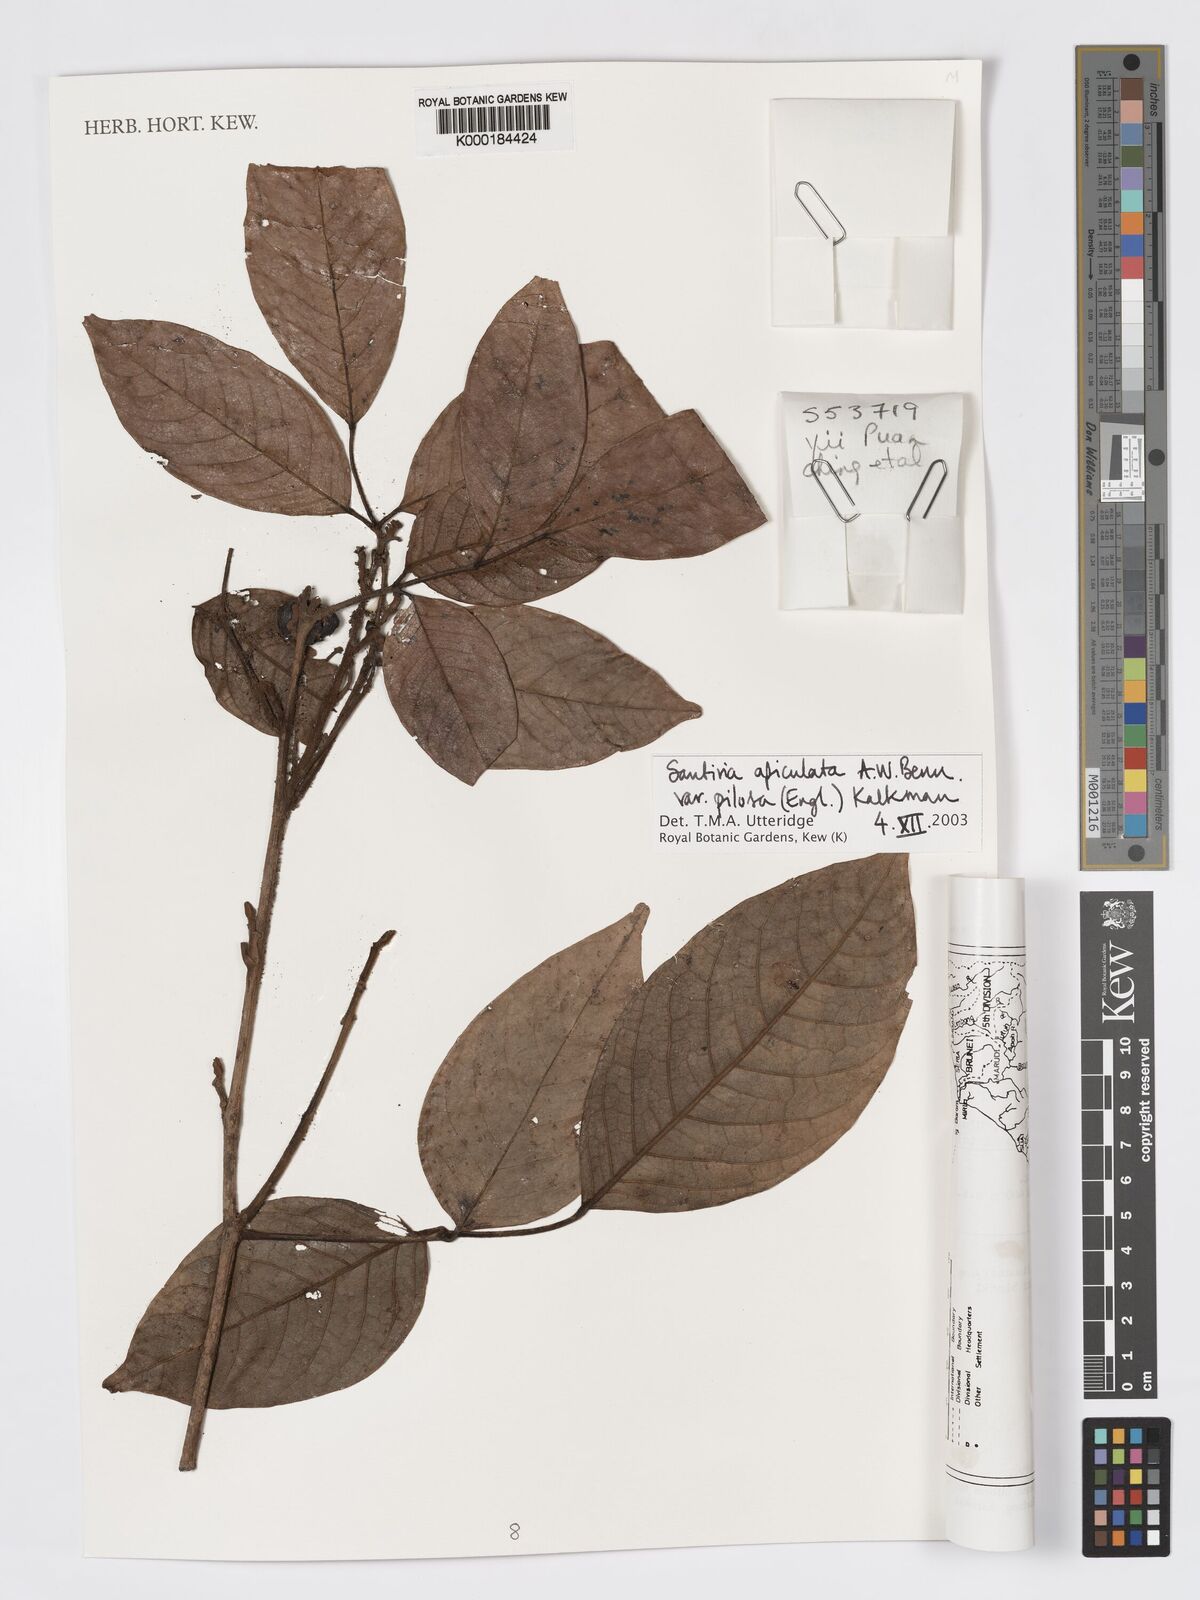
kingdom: Plantae
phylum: Tracheophyta
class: Magnoliopsida
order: Sapindales
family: Burseraceae
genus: Santiria
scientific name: Santiria apiculata
